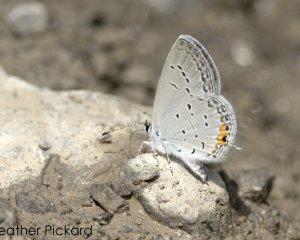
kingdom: Animalia
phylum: Arthropoda
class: Insecta
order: Lepidoptera
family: Lycaenidae
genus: Elkalyce
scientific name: Elkalyce comyntas
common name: Eastern Tailed-Blue
